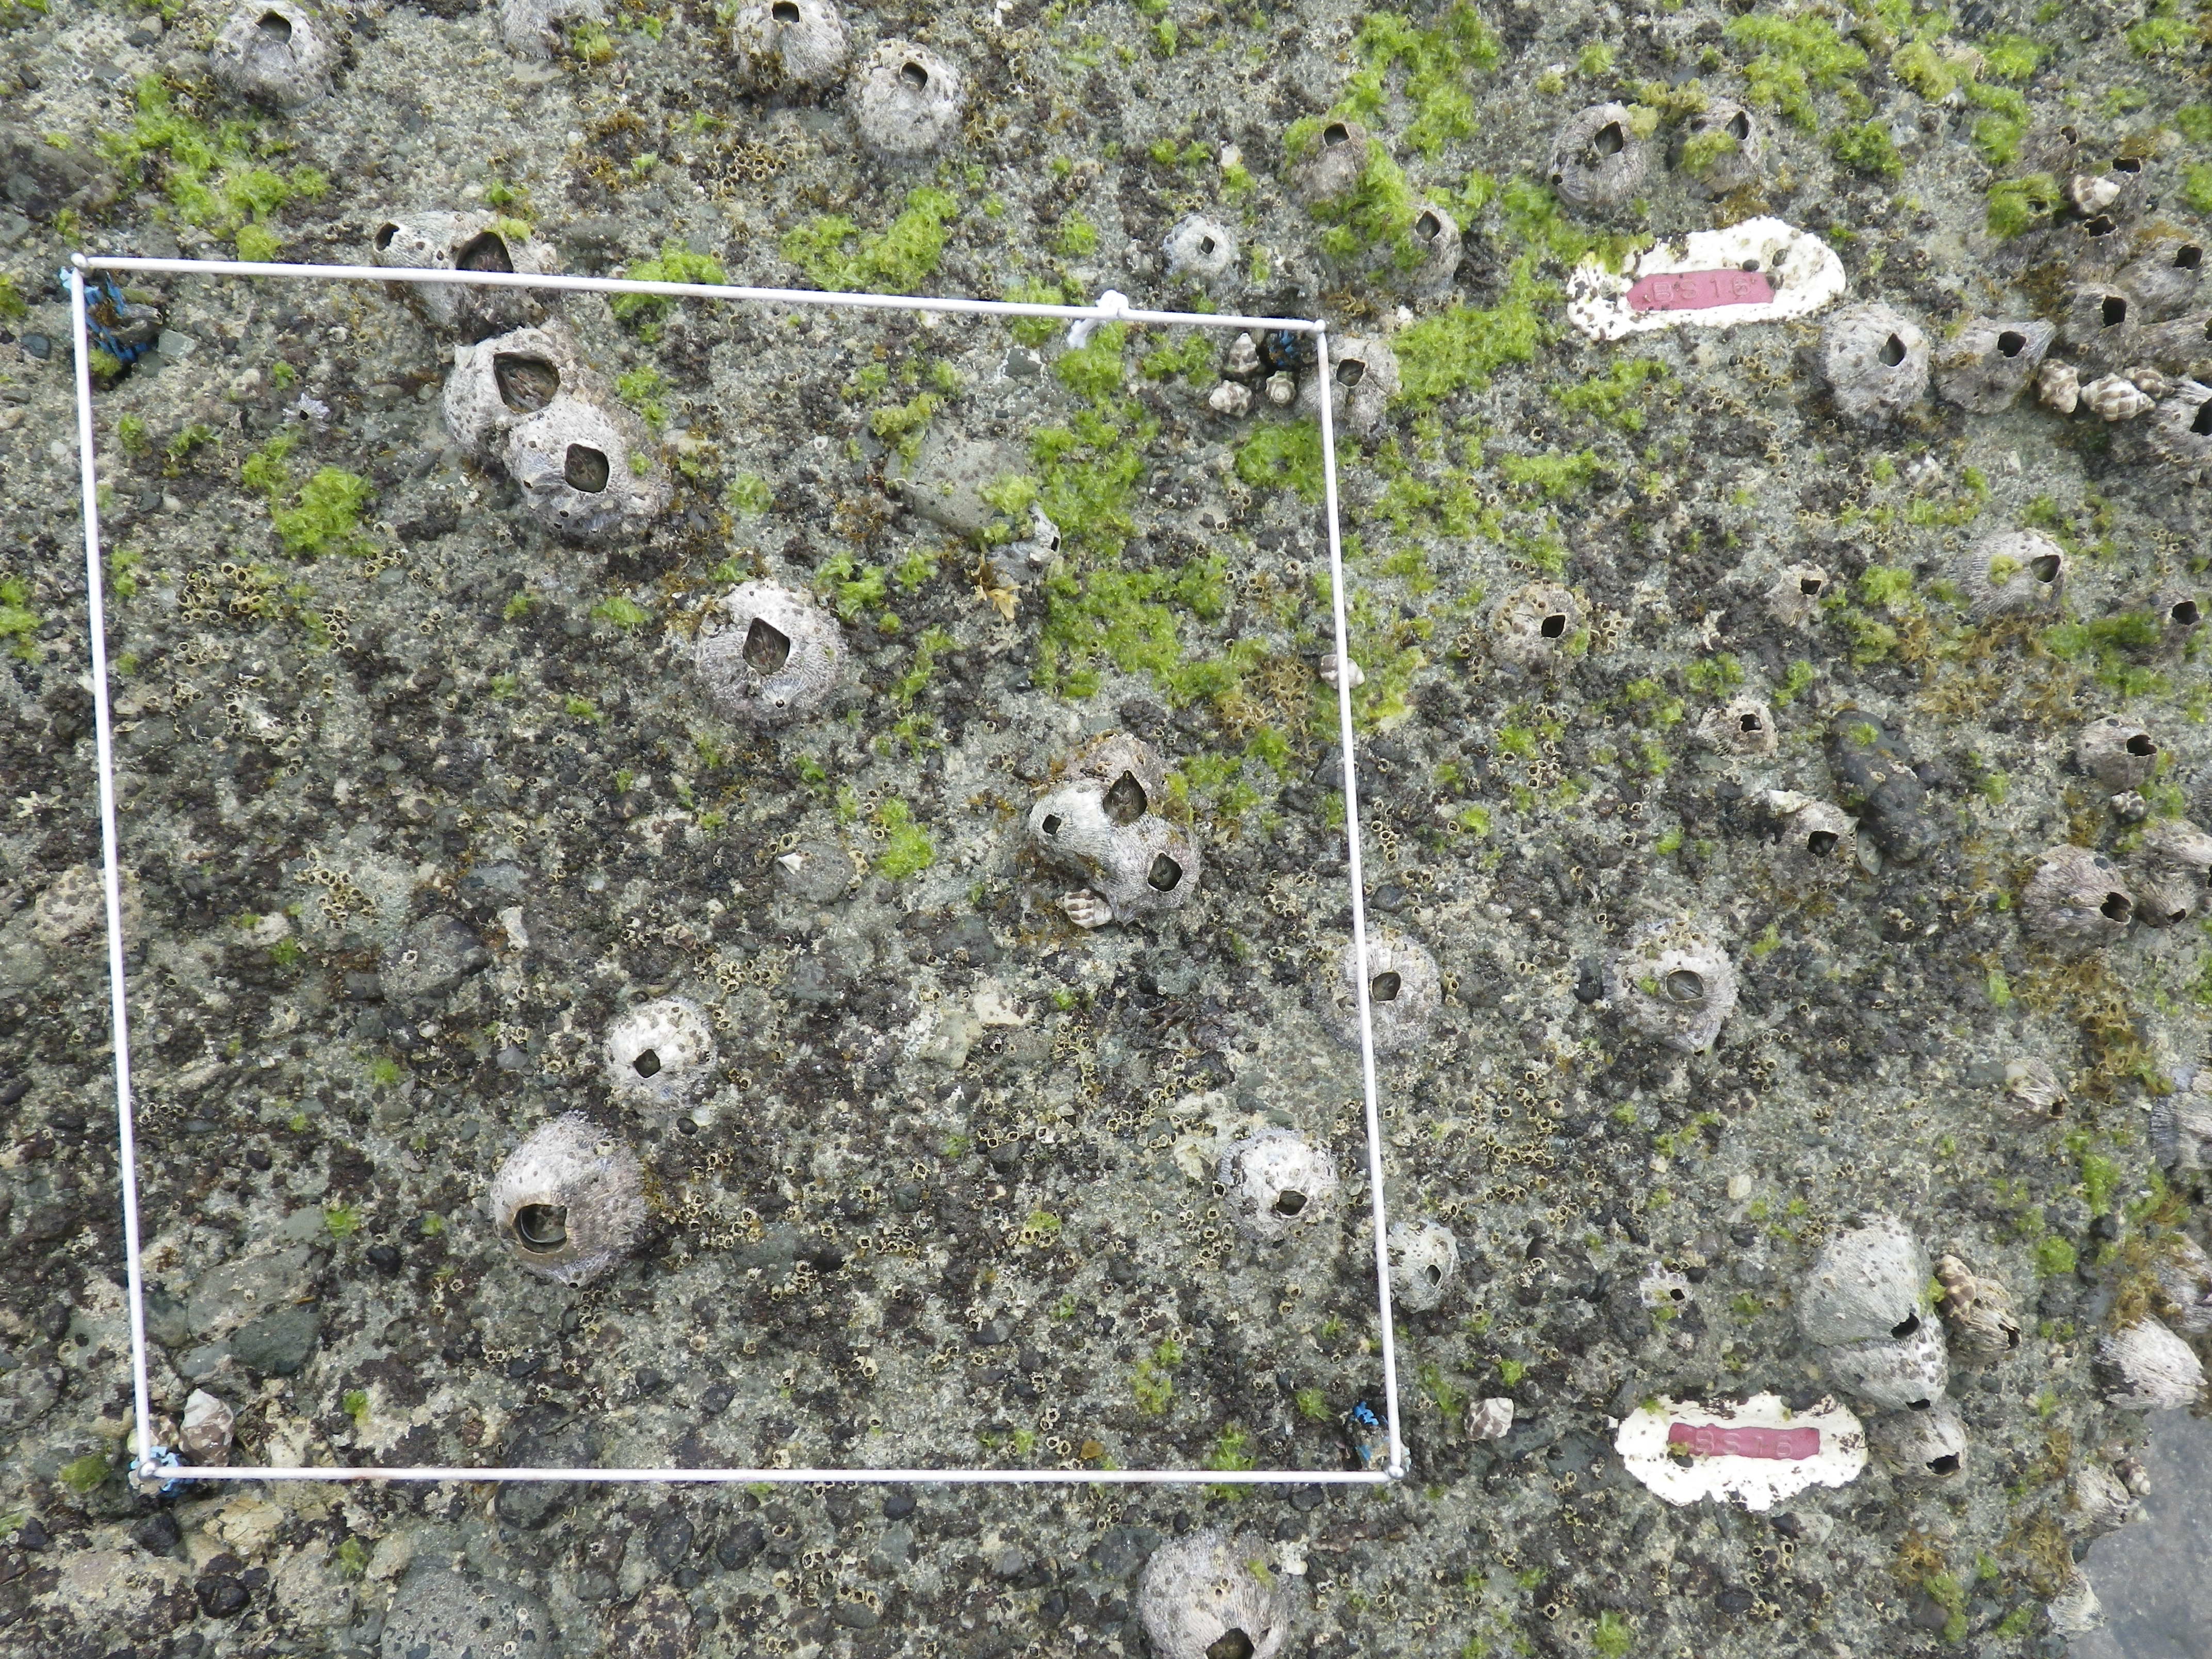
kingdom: Animalia
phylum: Arthropoda
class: Maxillopoda
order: Sessilia
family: Chthamalidae
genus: Chthamalus
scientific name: Chthamalus challengeri
